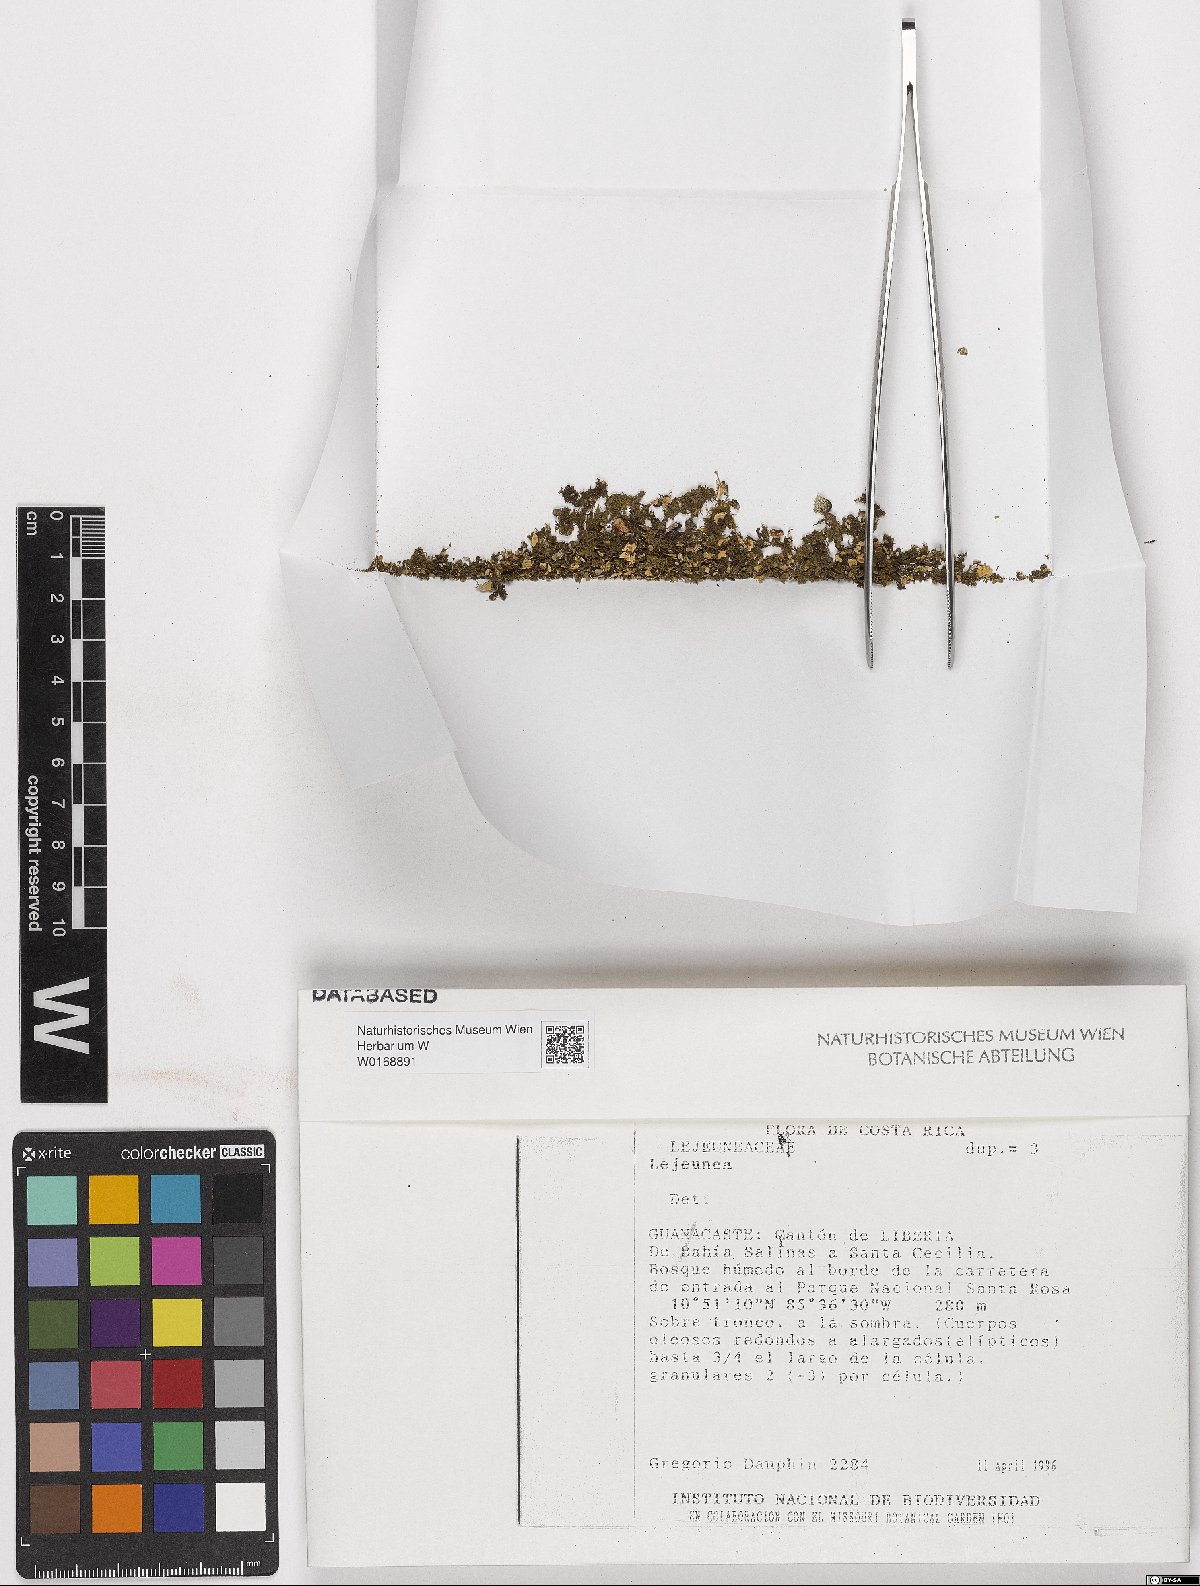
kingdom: Plantae
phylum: Marchantiophyta
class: Jungermanniopsida
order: Porellales
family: Lejeuneaceae
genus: Lejeunea
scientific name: Lejeunea
